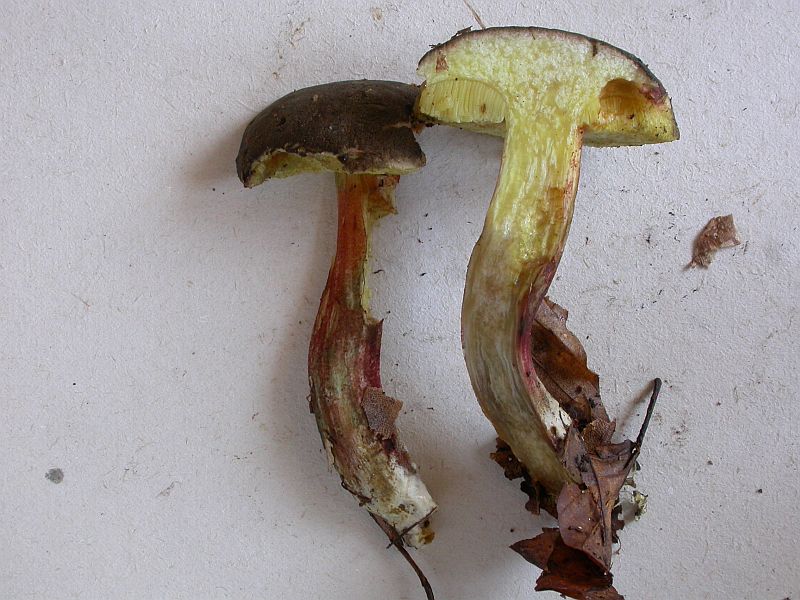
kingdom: Fungi
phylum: Basidiomycota
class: Agaricomycetes
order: Boletales
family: Boletaceae
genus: Xerocomellus
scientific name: Xerocomellus pruinatus
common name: dugget rørhat
